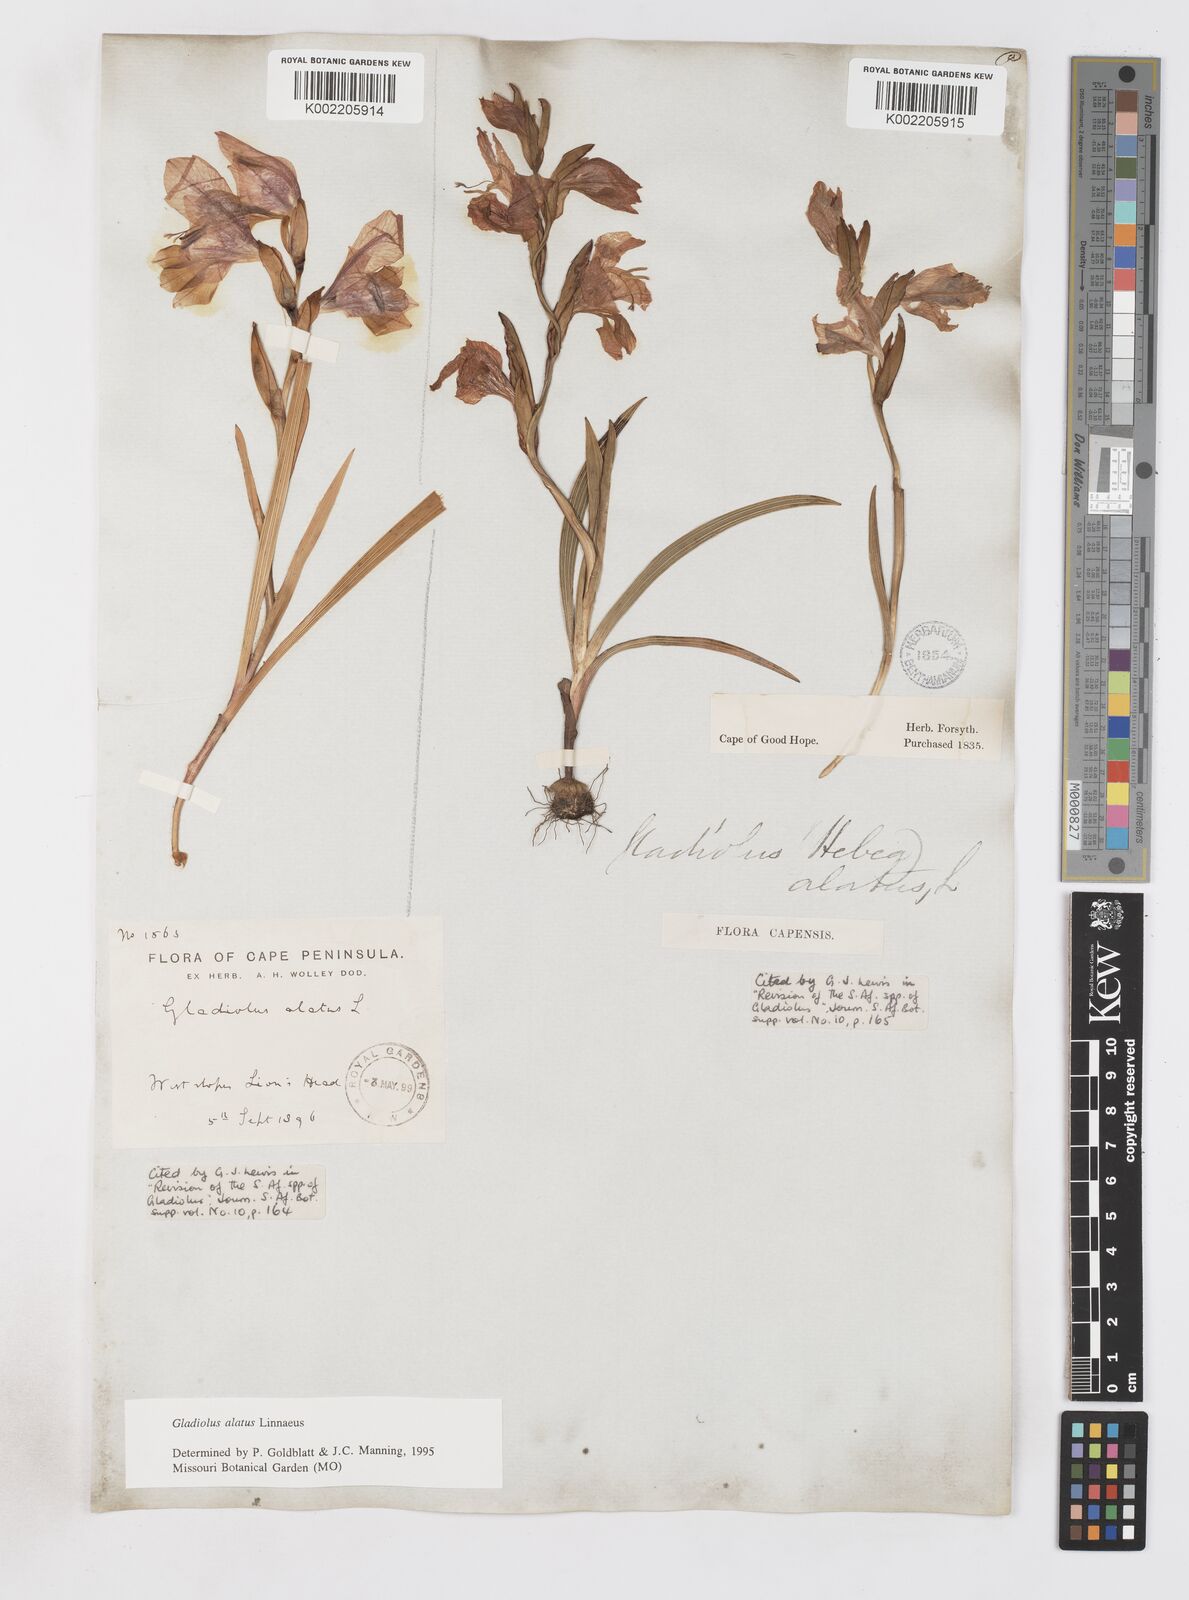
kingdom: Plantae
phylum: Tracheophyta
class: Liliopsida
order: Asparagales
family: Iridaceae
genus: Gladiolus
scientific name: Gladiolus alatus
